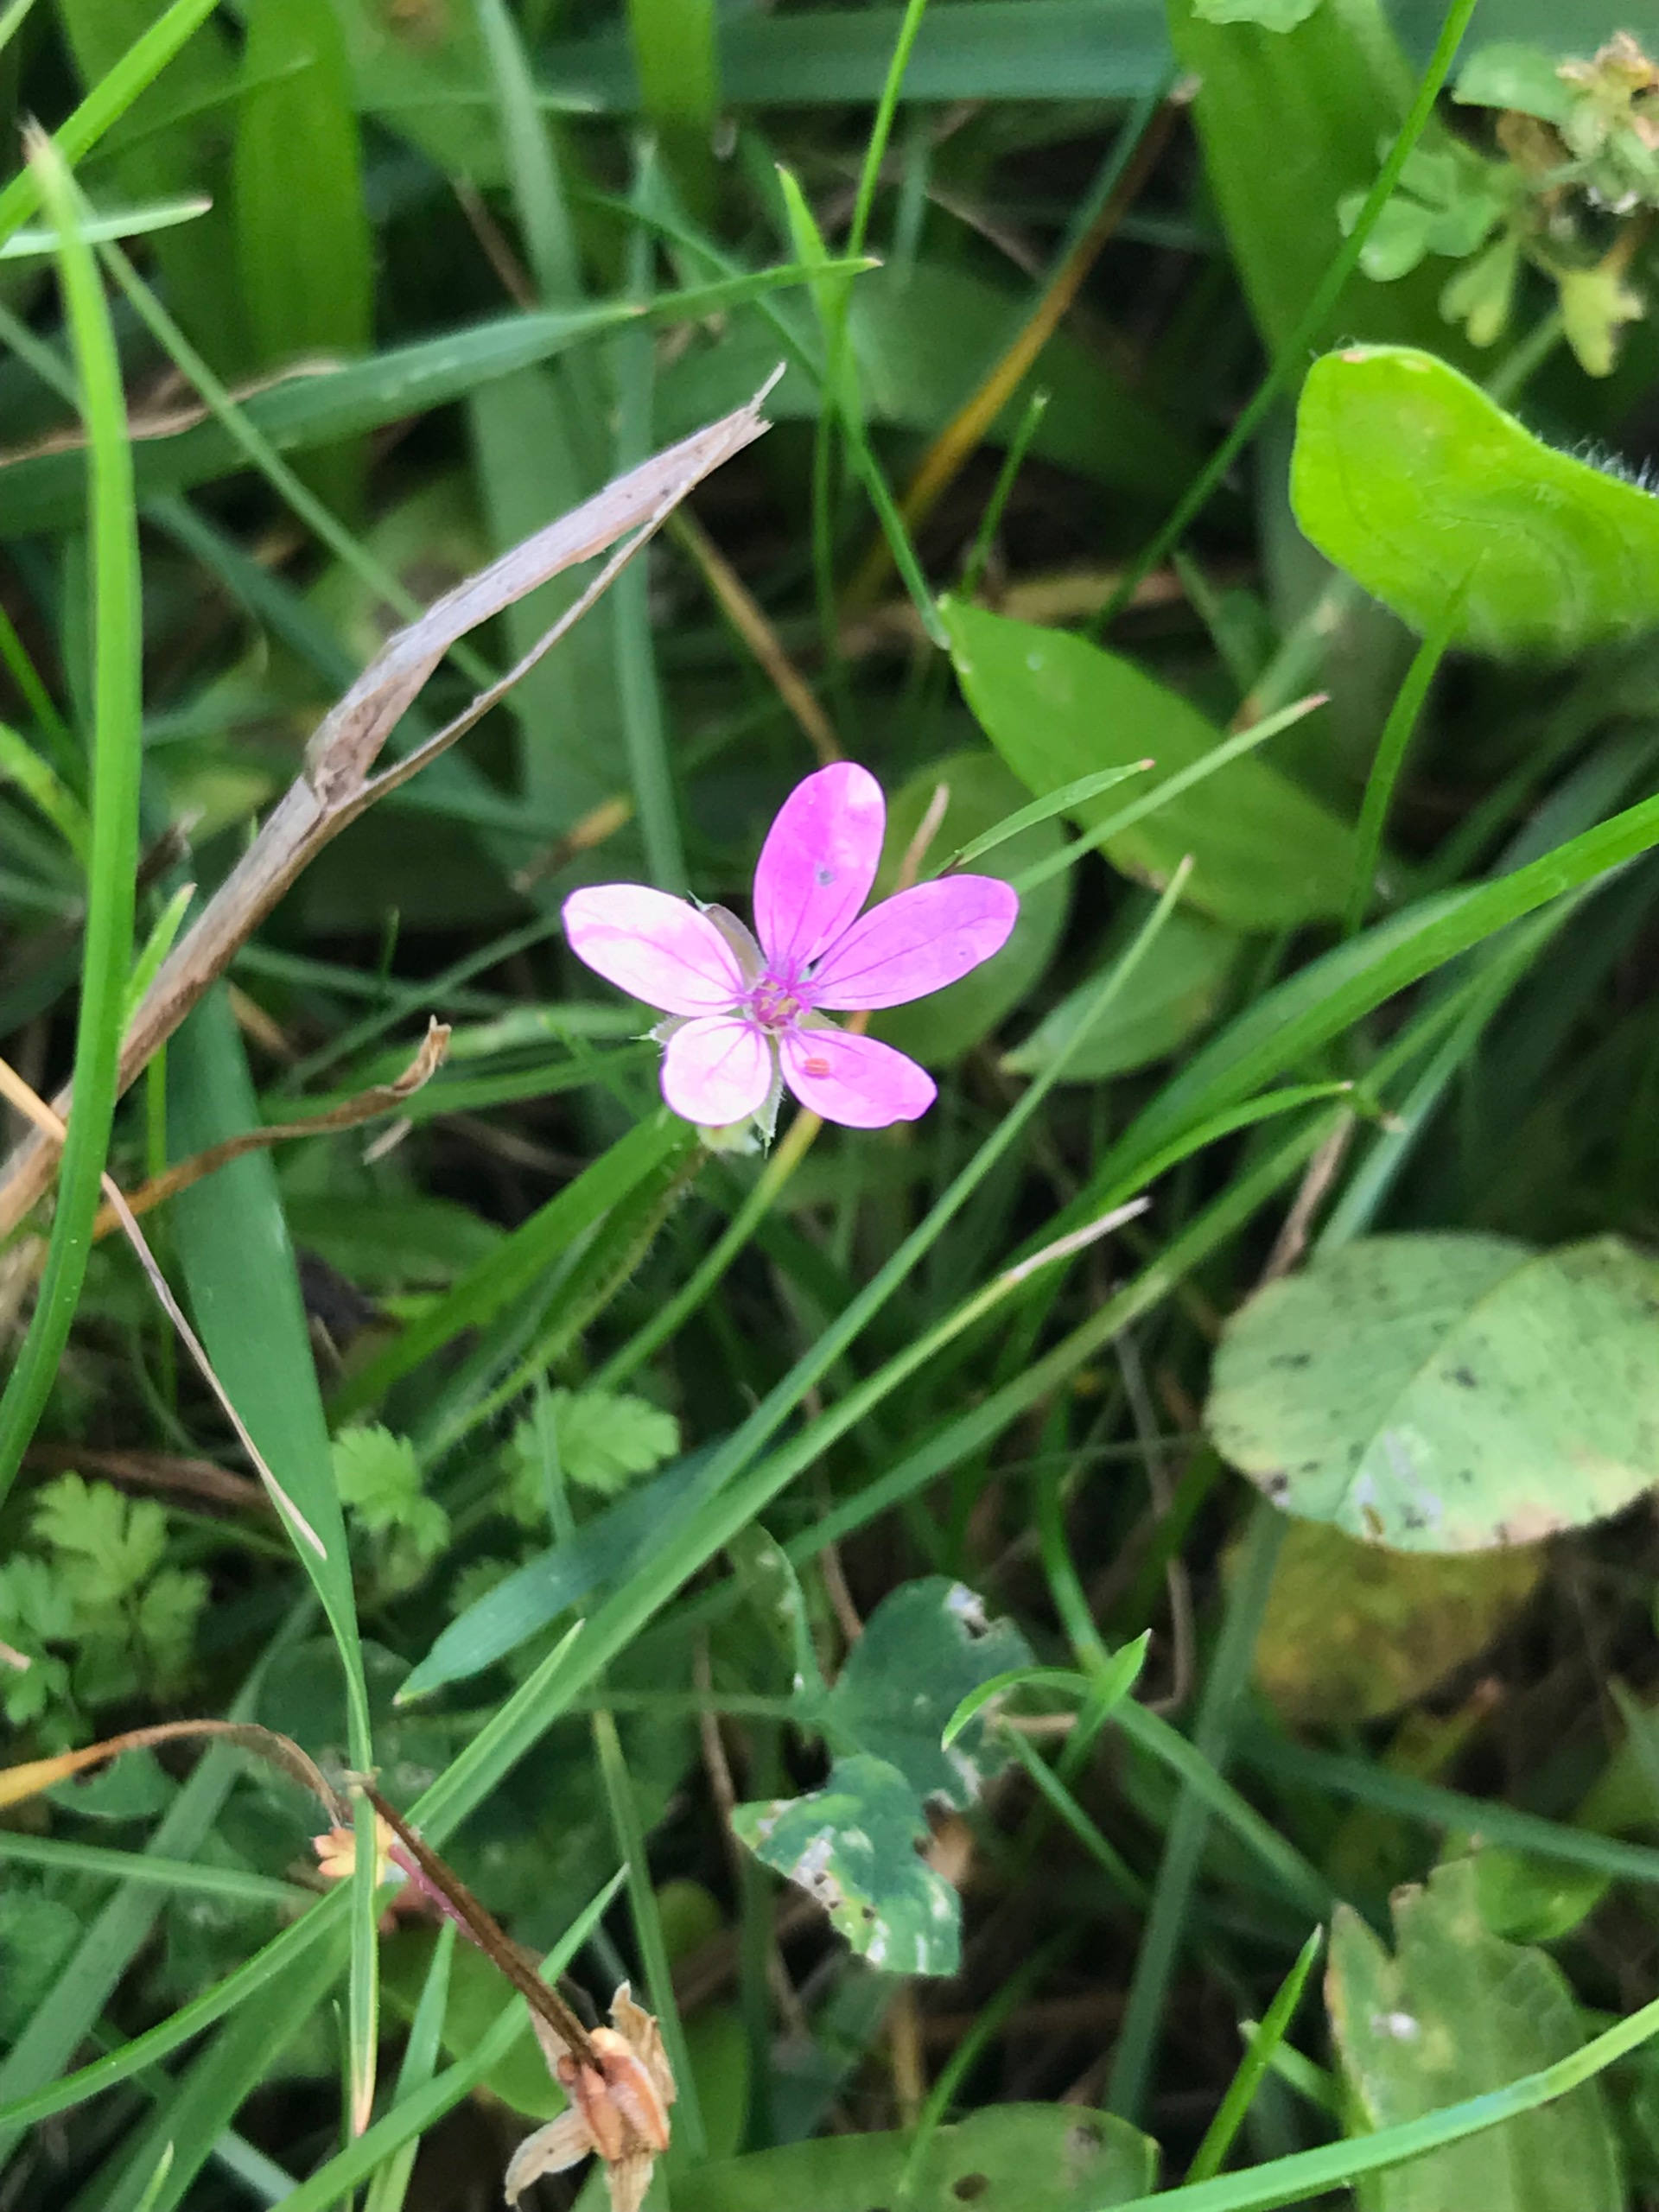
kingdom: Plantae
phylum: Tracheophyta
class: Magnoliopsida
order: Geraniales
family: Geraniaceae
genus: Erodium
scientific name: Erodium cicutarium
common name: Hejrenæb
